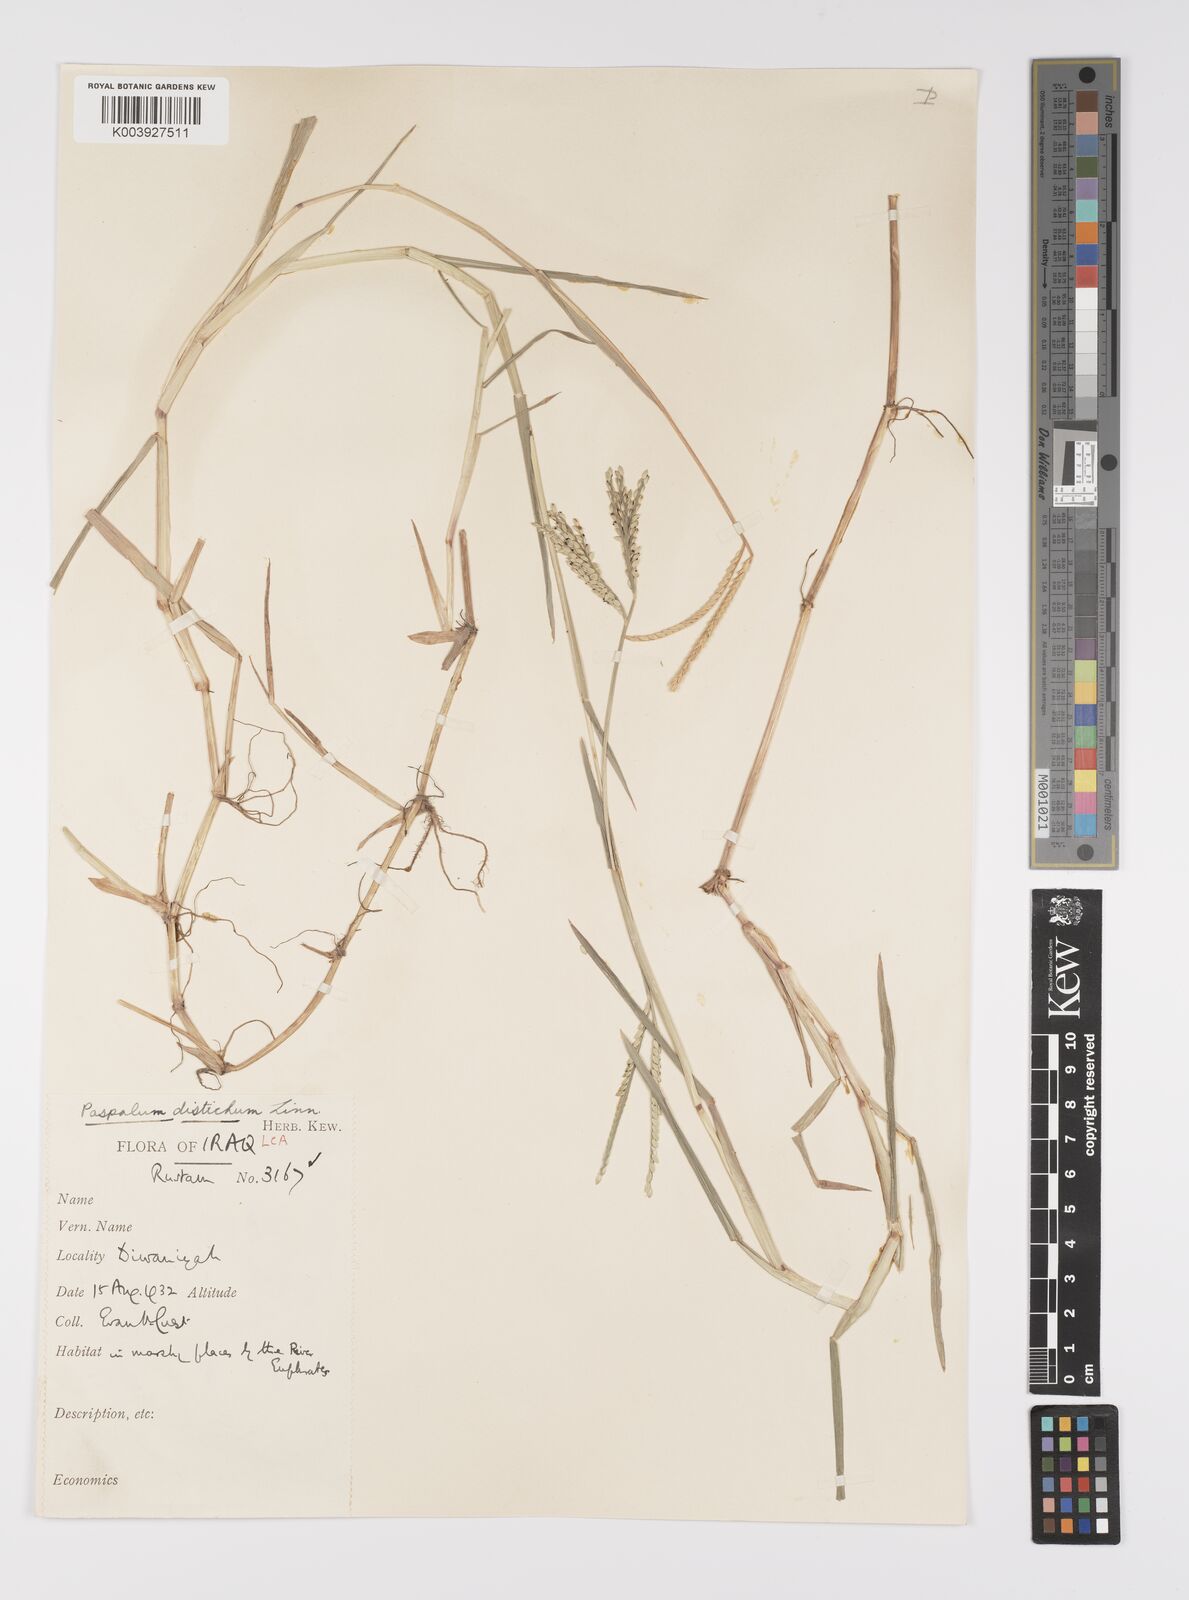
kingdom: Plantae
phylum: Tracheophyta
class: Liliopsida
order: Poales
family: Poaceae
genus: Paspalum
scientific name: Paspalum distichum
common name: Knotgrass
